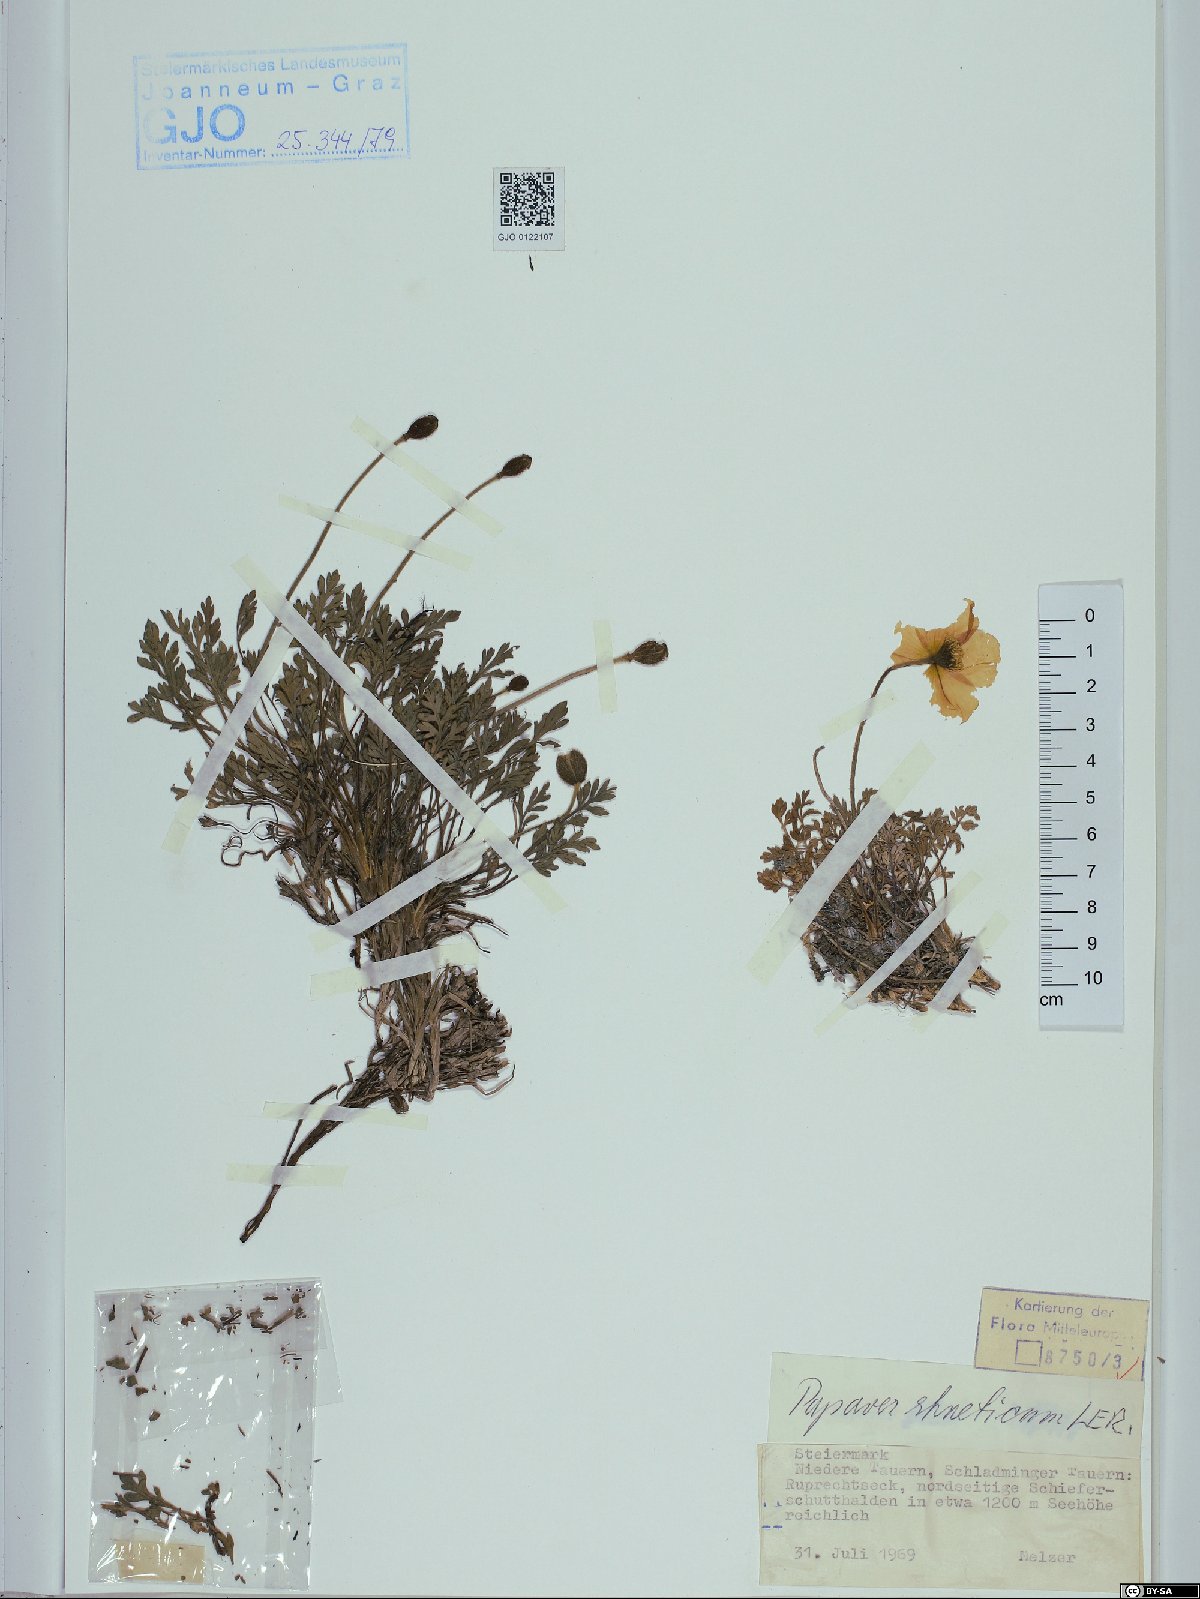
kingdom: Plantae
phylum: Tracheophyta
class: Magnoliopsida
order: Ranunculales
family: Papaveraceae
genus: Papaver
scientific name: Papaver alpinum
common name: Austrian poppy
